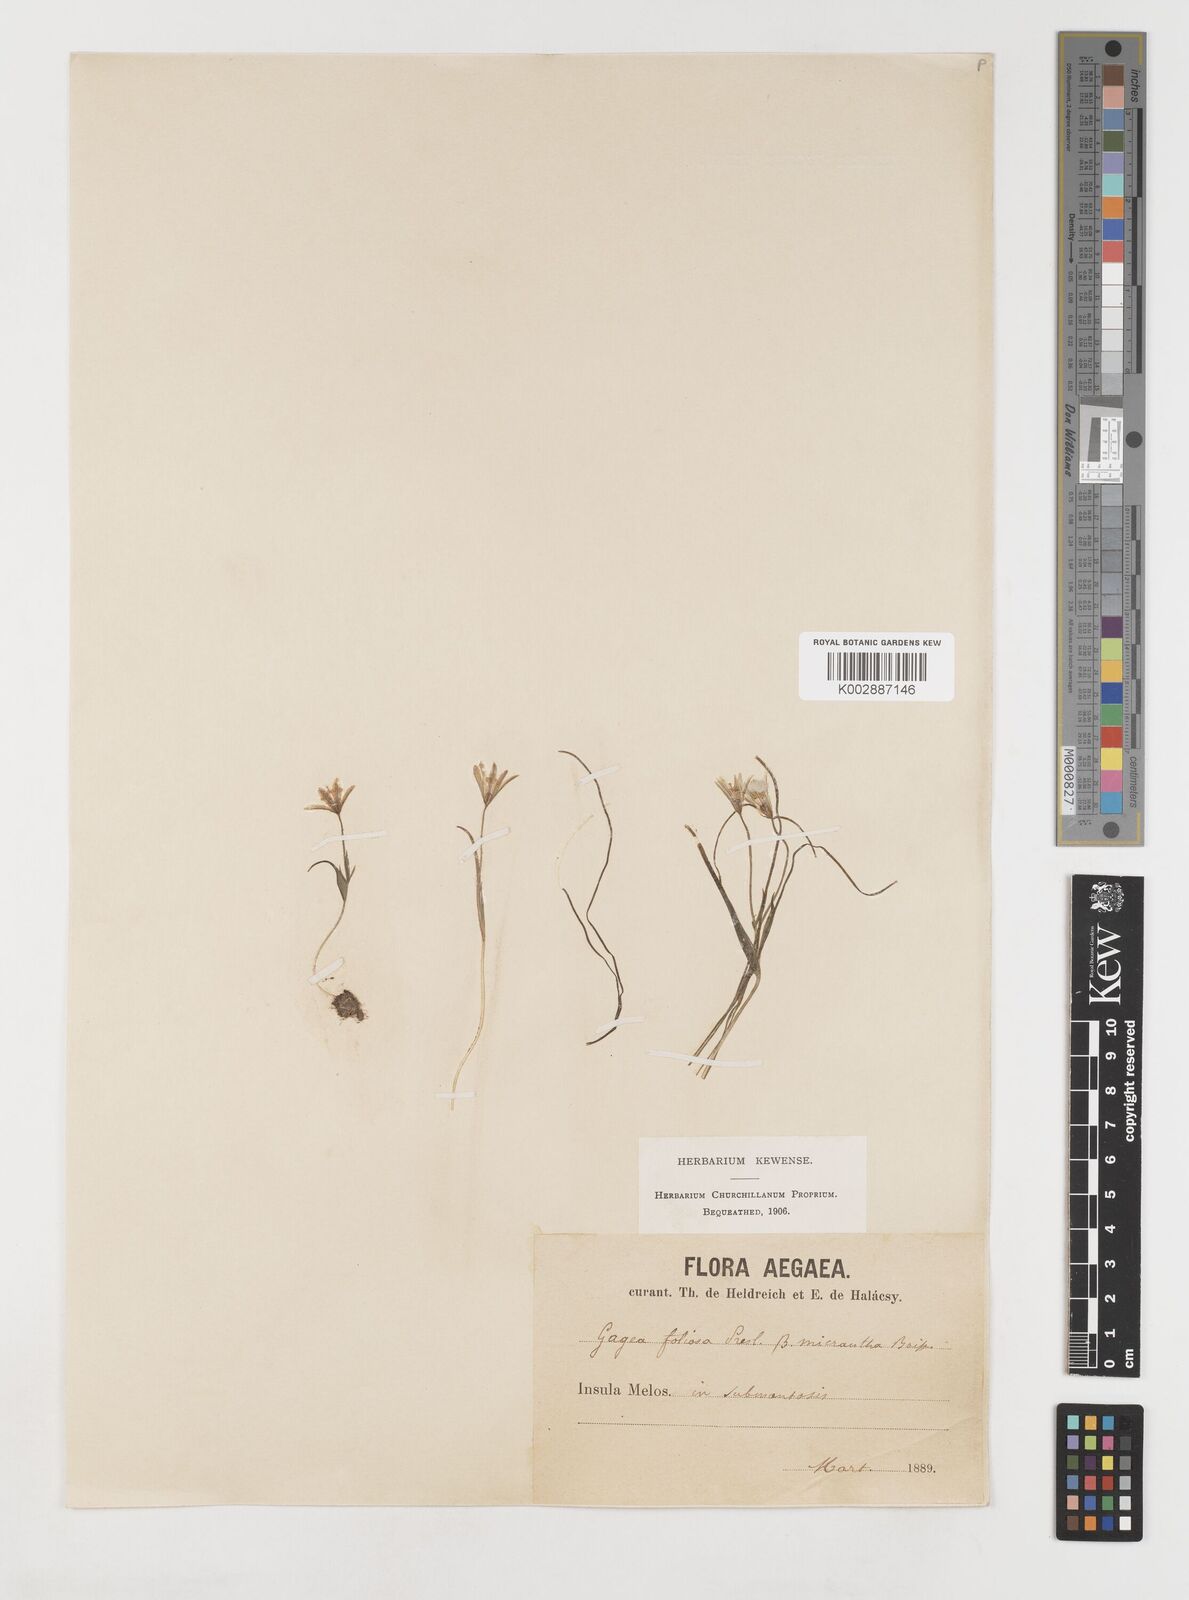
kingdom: Plantae
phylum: Tracheophyta
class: Liliopsida
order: Liliales
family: Liliaceae
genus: Gagea
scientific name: Gagea peduncularis
